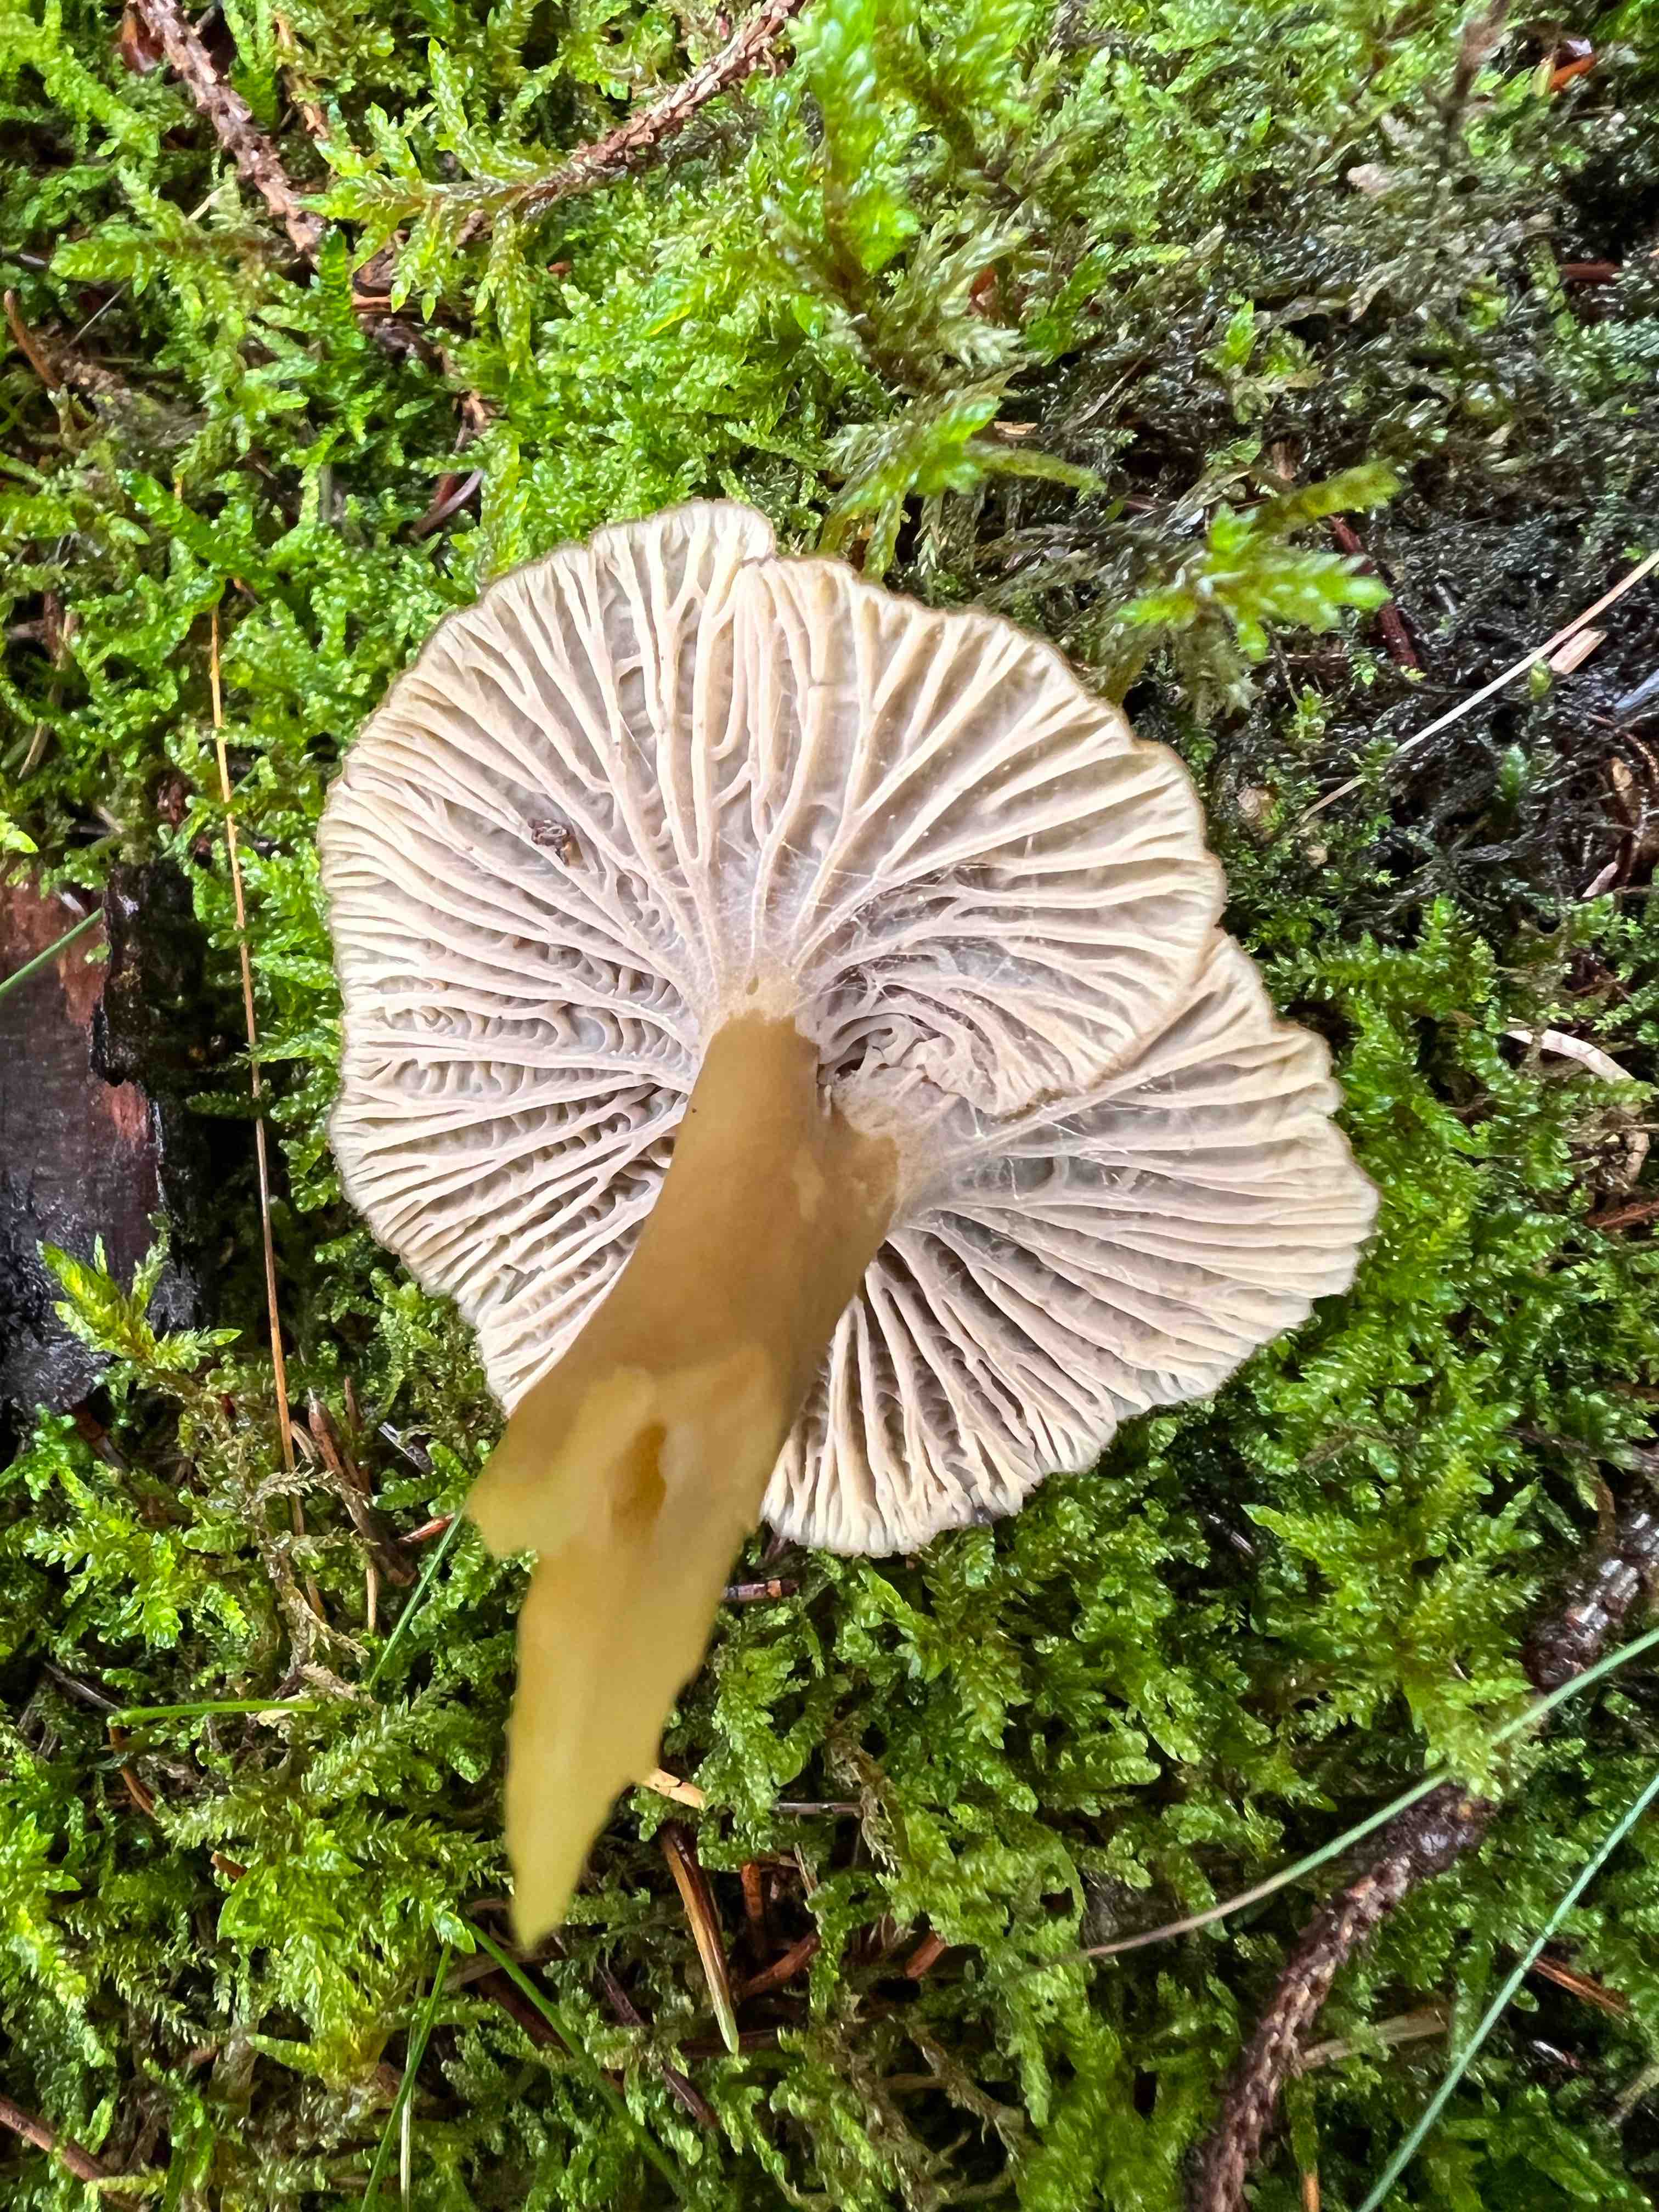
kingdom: Fungi
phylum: Basidiomycota
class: Agaricomycetes
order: Cantharellales
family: Hydnaceae
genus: Craterellus
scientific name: Craterellus tubaeformis
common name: tragt-kantarel
